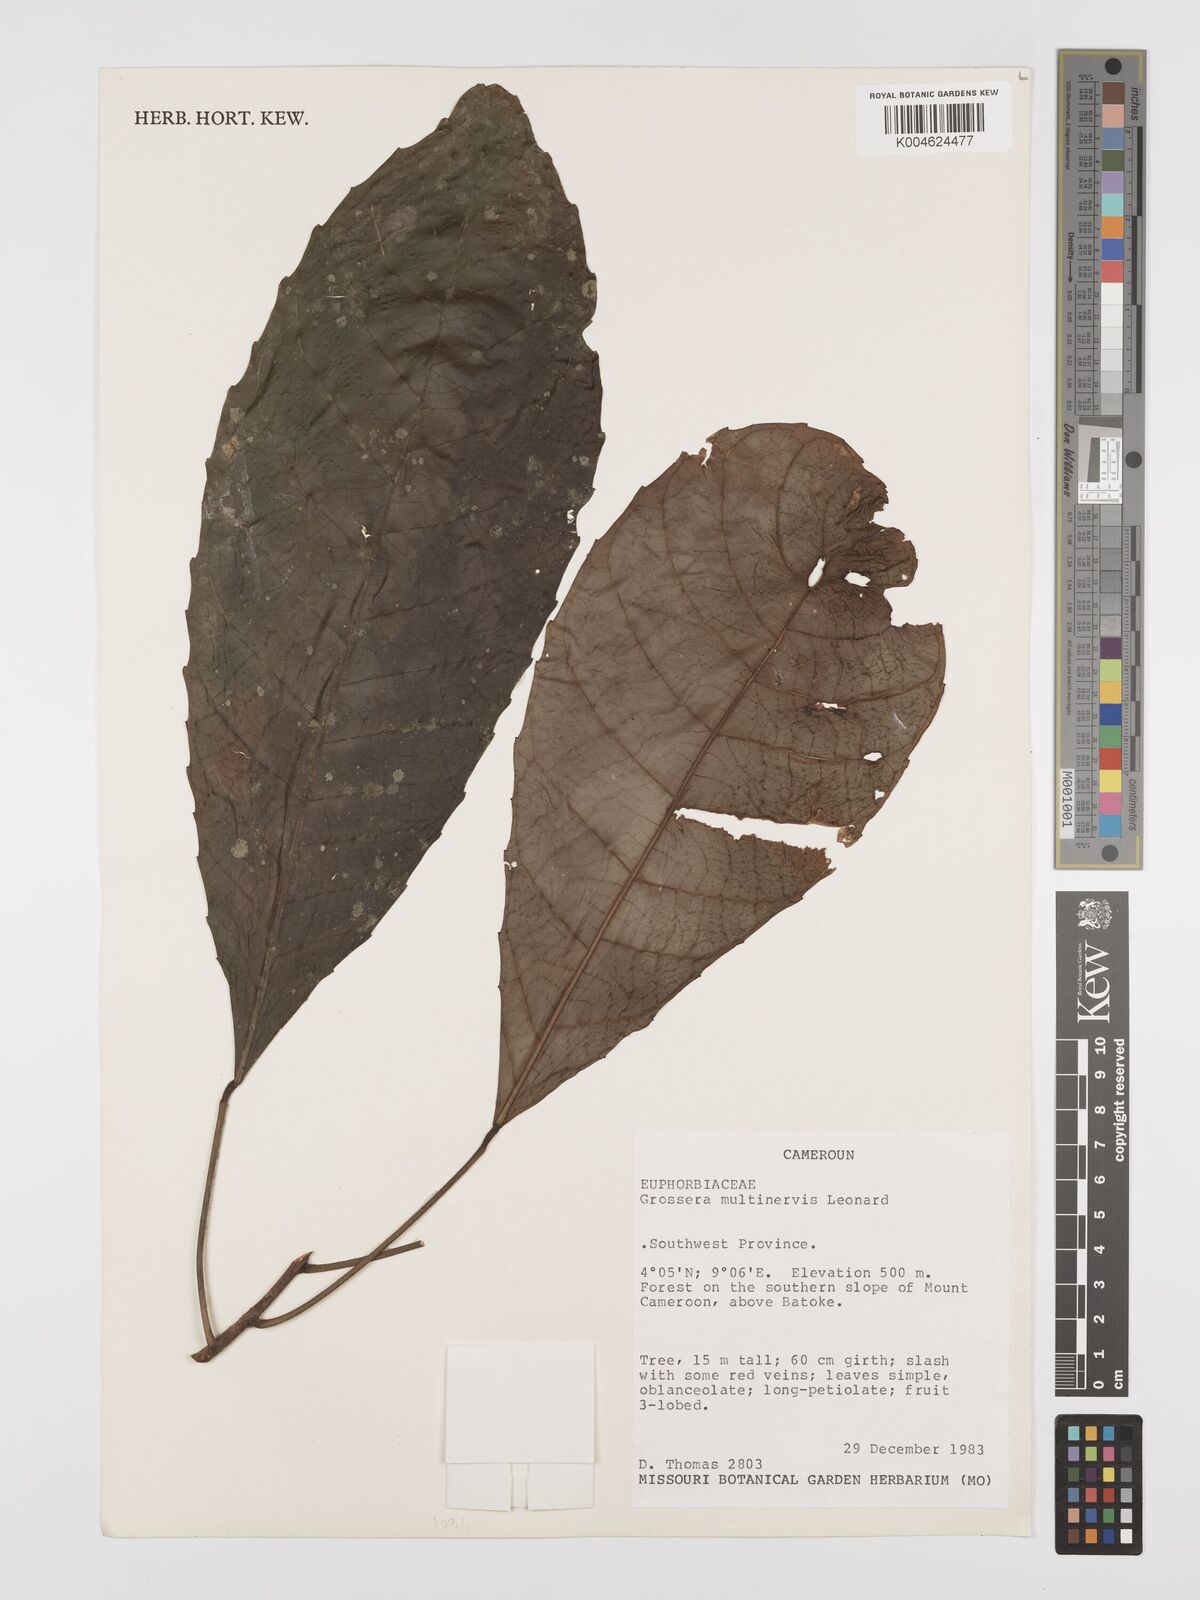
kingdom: Plantae
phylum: Tracheophyta
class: Magnoliopsida
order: Malpighiales
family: Euphorbiaceae
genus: Grossera
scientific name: Grossera multinervis
